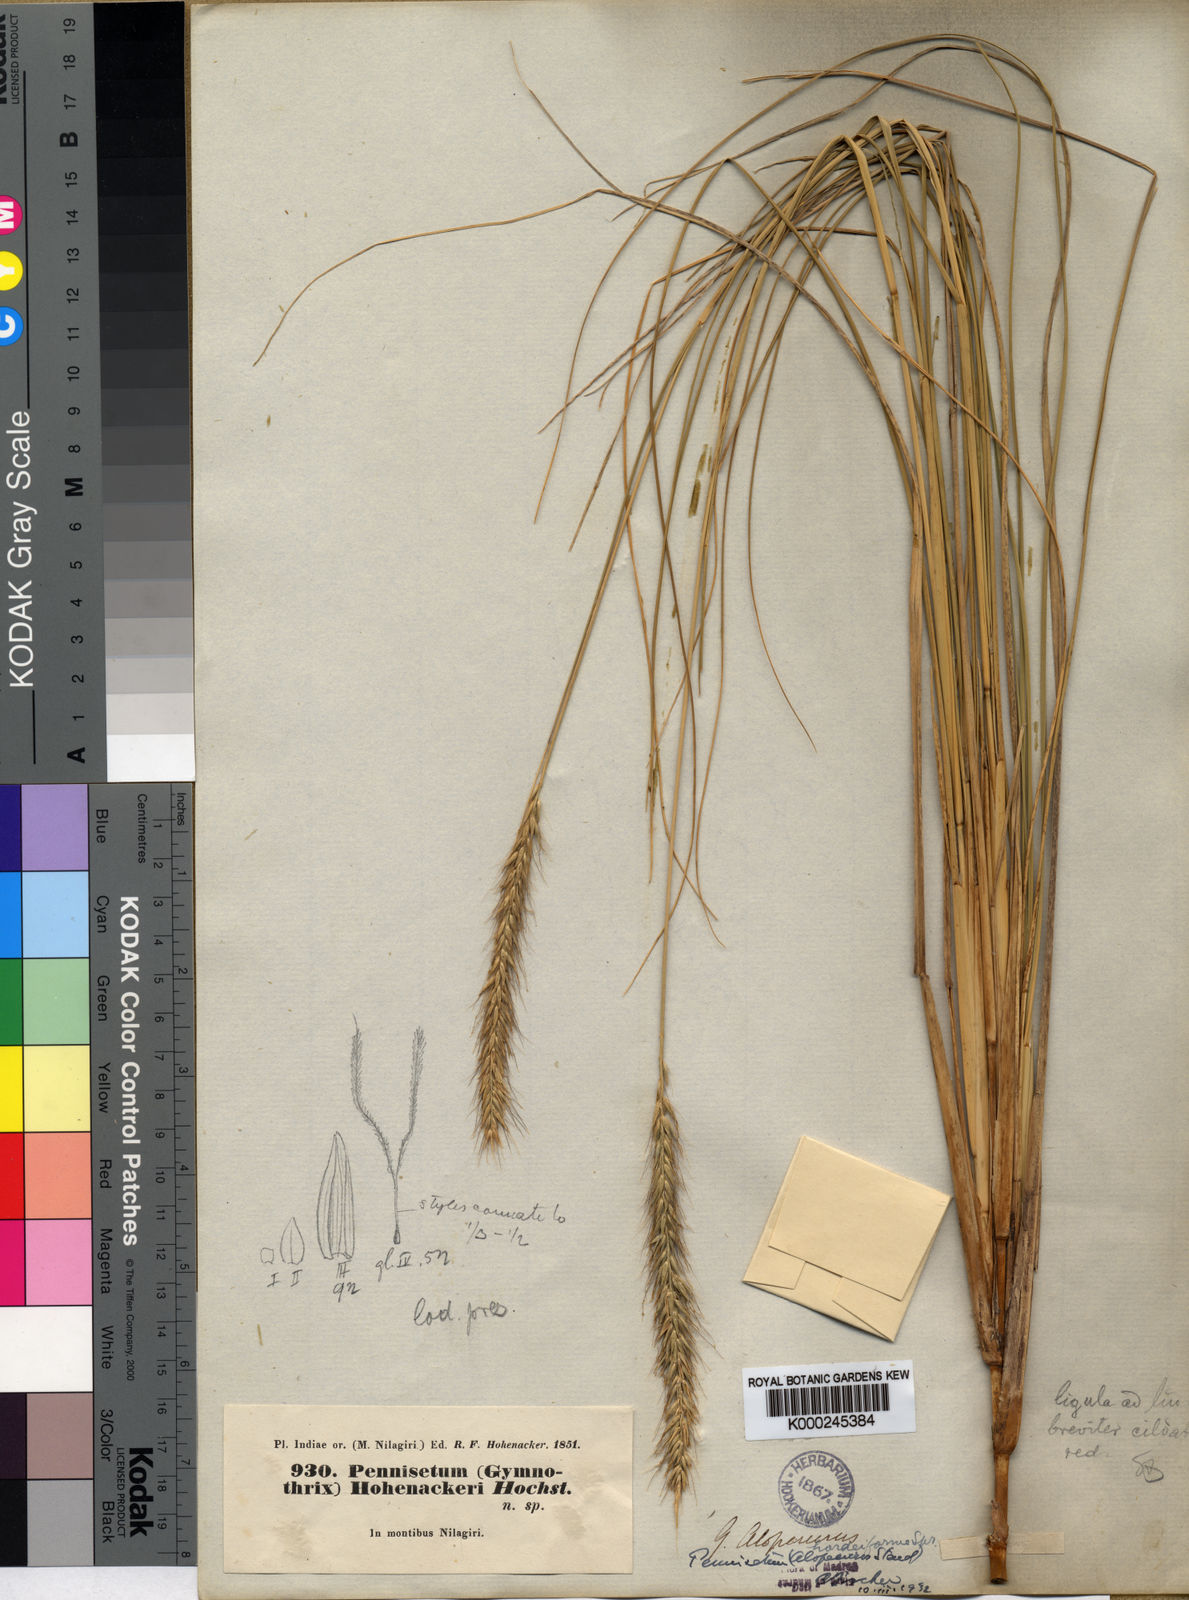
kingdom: Plantae
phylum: Tracheophyta
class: Liliopsida
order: Poales
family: Poaceae
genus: Cenchrus
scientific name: Cenchrus hohenackeri
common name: Moya grass
